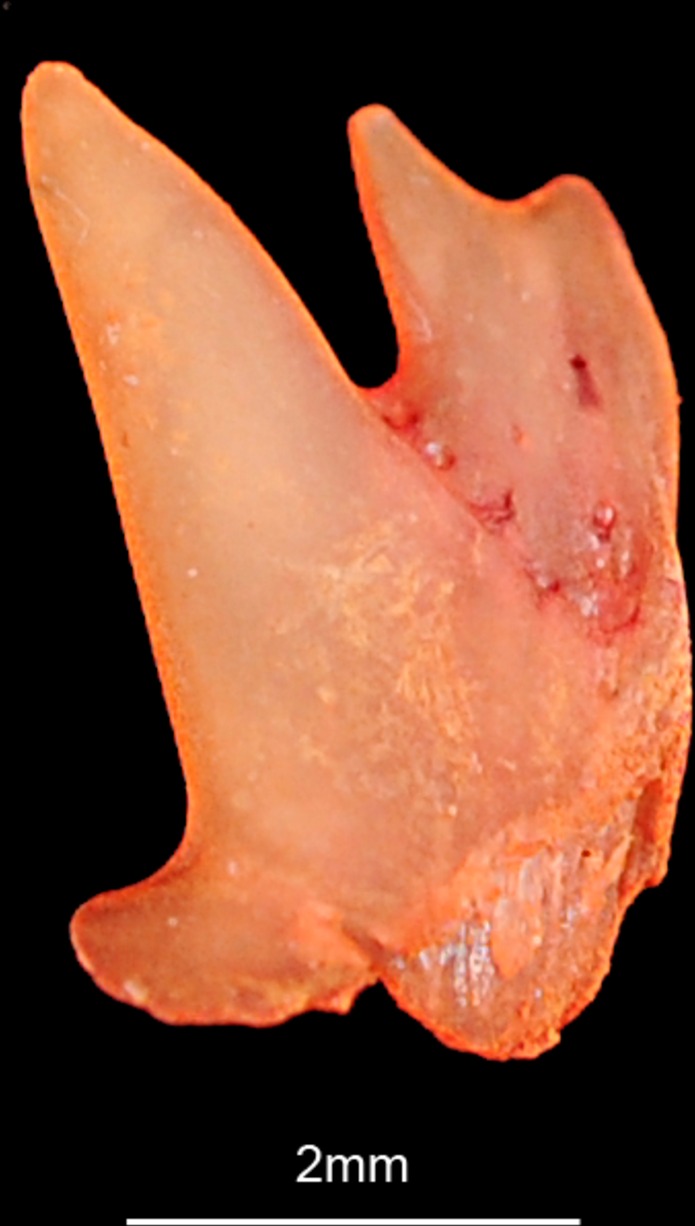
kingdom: Animalia
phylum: Chordata
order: Scorpaeniformes
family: Triglidae
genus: Chelidonichthys
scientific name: Chelidonichthys cuculus
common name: Red gurnard
